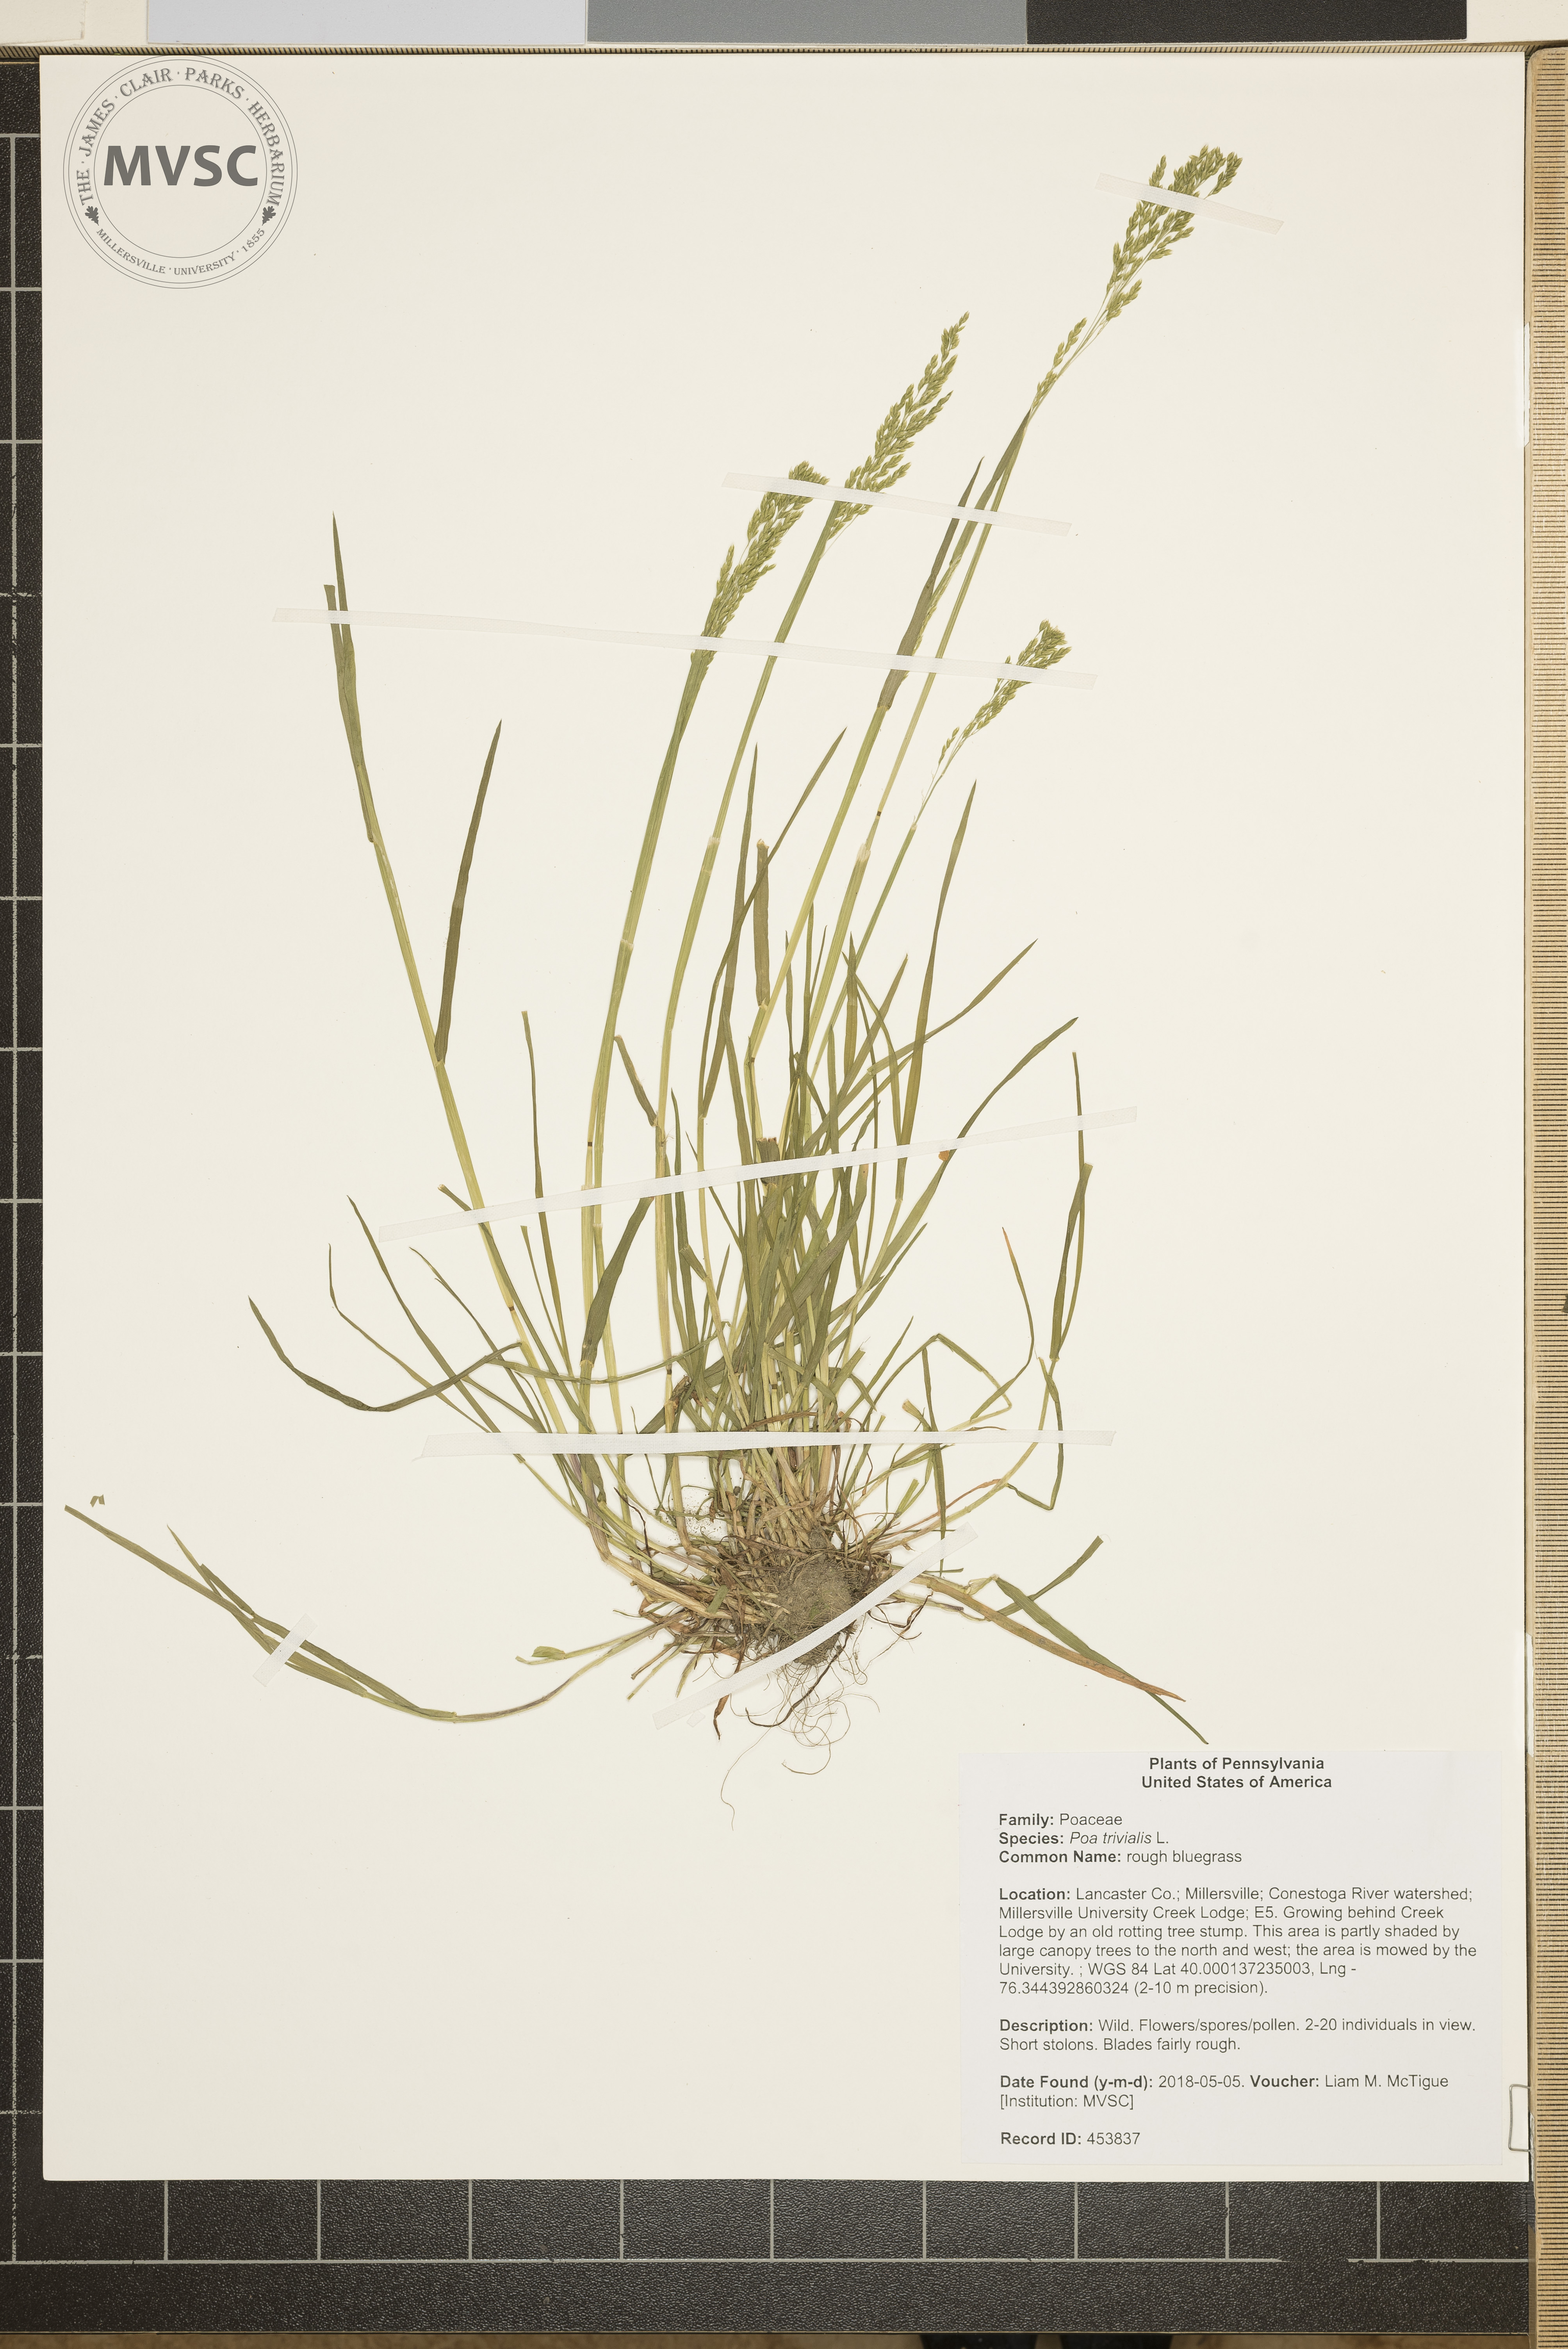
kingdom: Plantae
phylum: Tracheophyta
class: Liliopsida
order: Poales
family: Poaceae
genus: Poa
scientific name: Poa trivialis
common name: rough bluegrass
